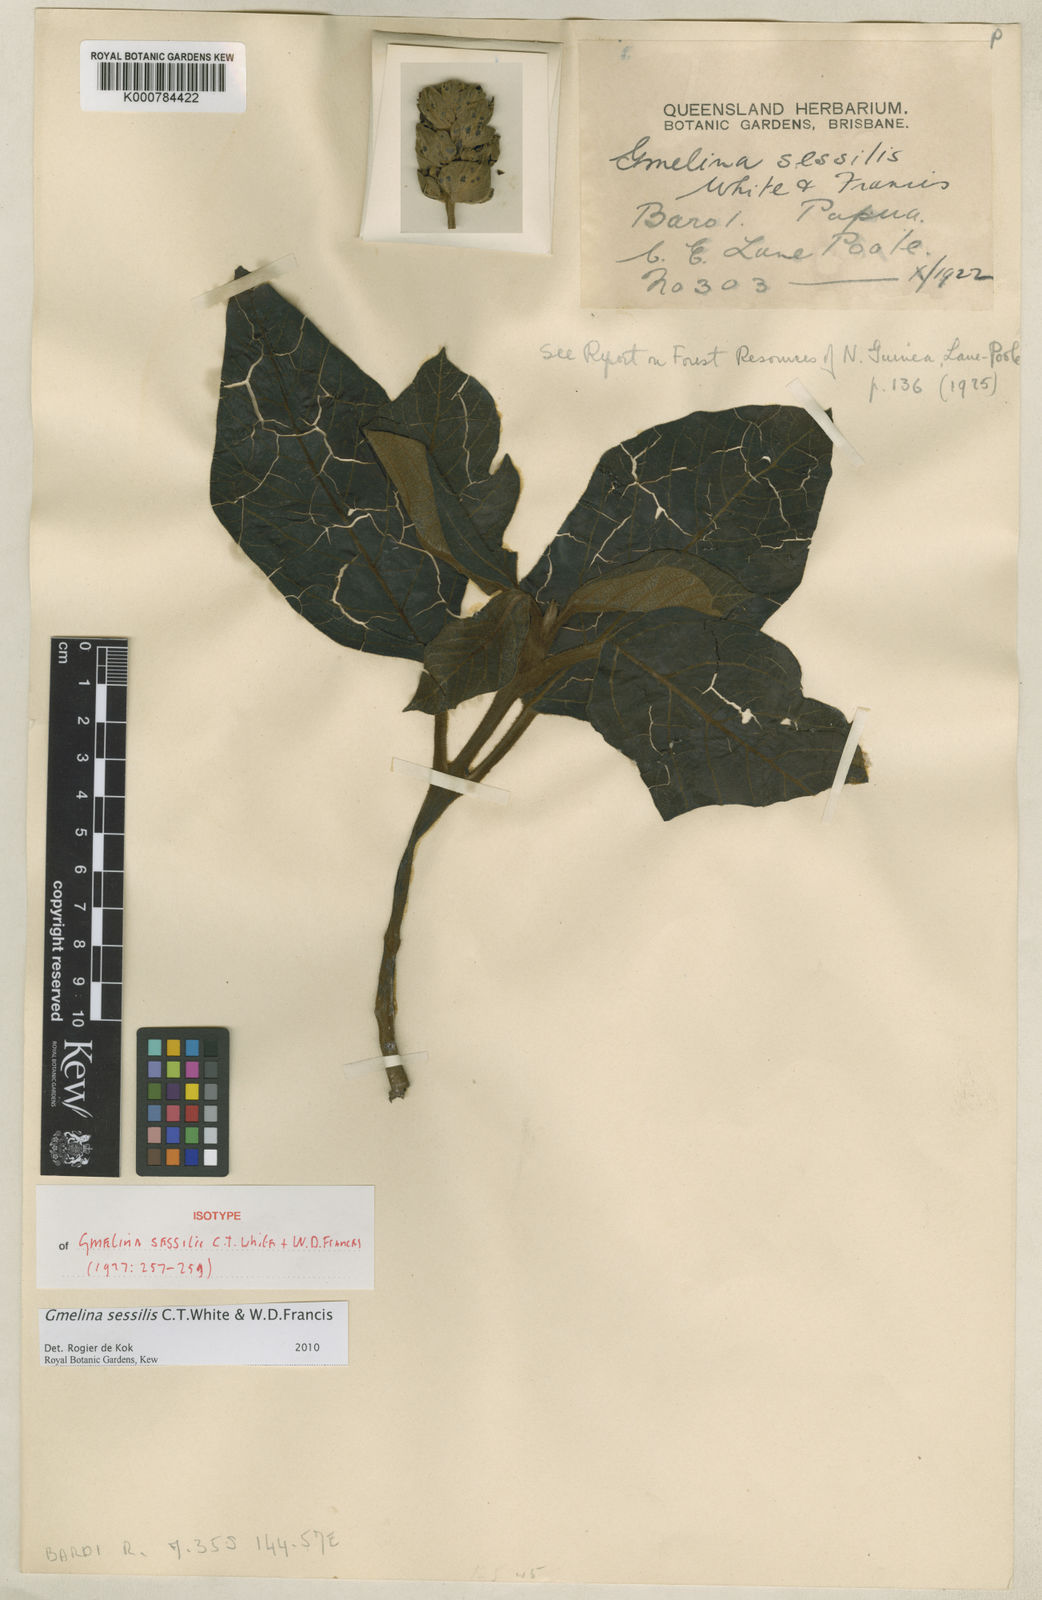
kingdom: Plantae
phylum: Tracheophyta
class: Magnoliopsida
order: Lamiales
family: Lamiaceae
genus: Gmelina
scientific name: Gmelina
